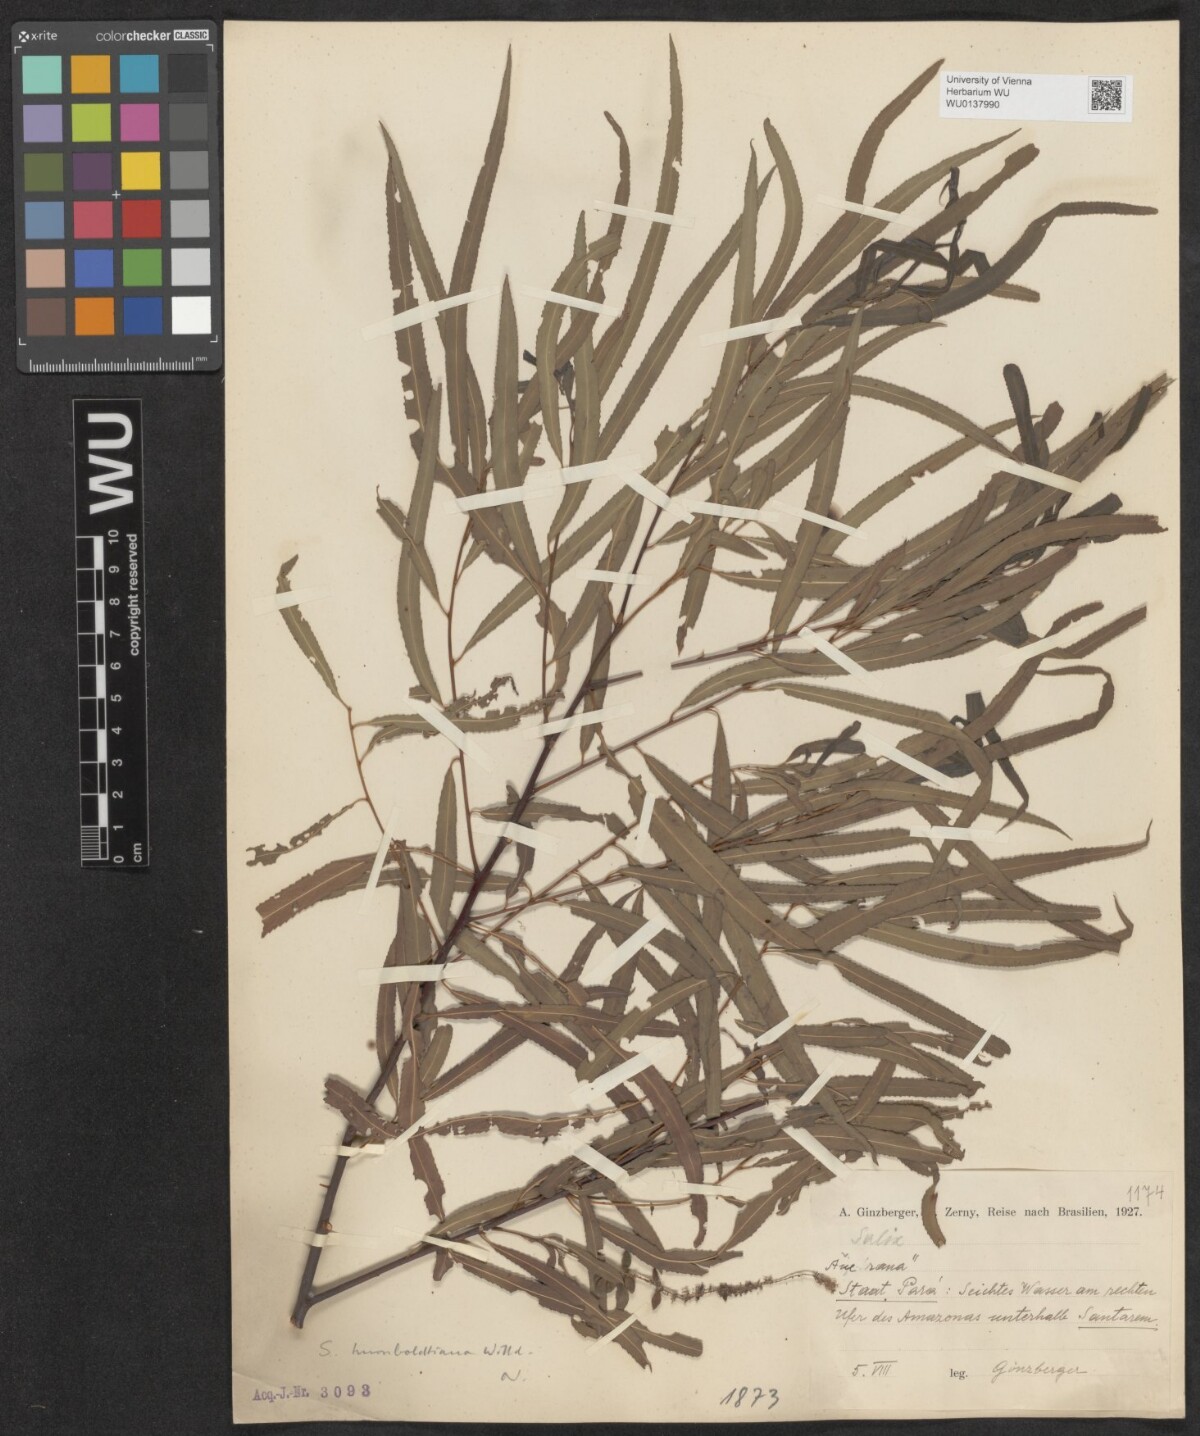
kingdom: Plantae
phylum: Tracheophyta
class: Magnoliopsida
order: Malpighiales
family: Salicaceae
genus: Salix
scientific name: Salix humboldtiana
